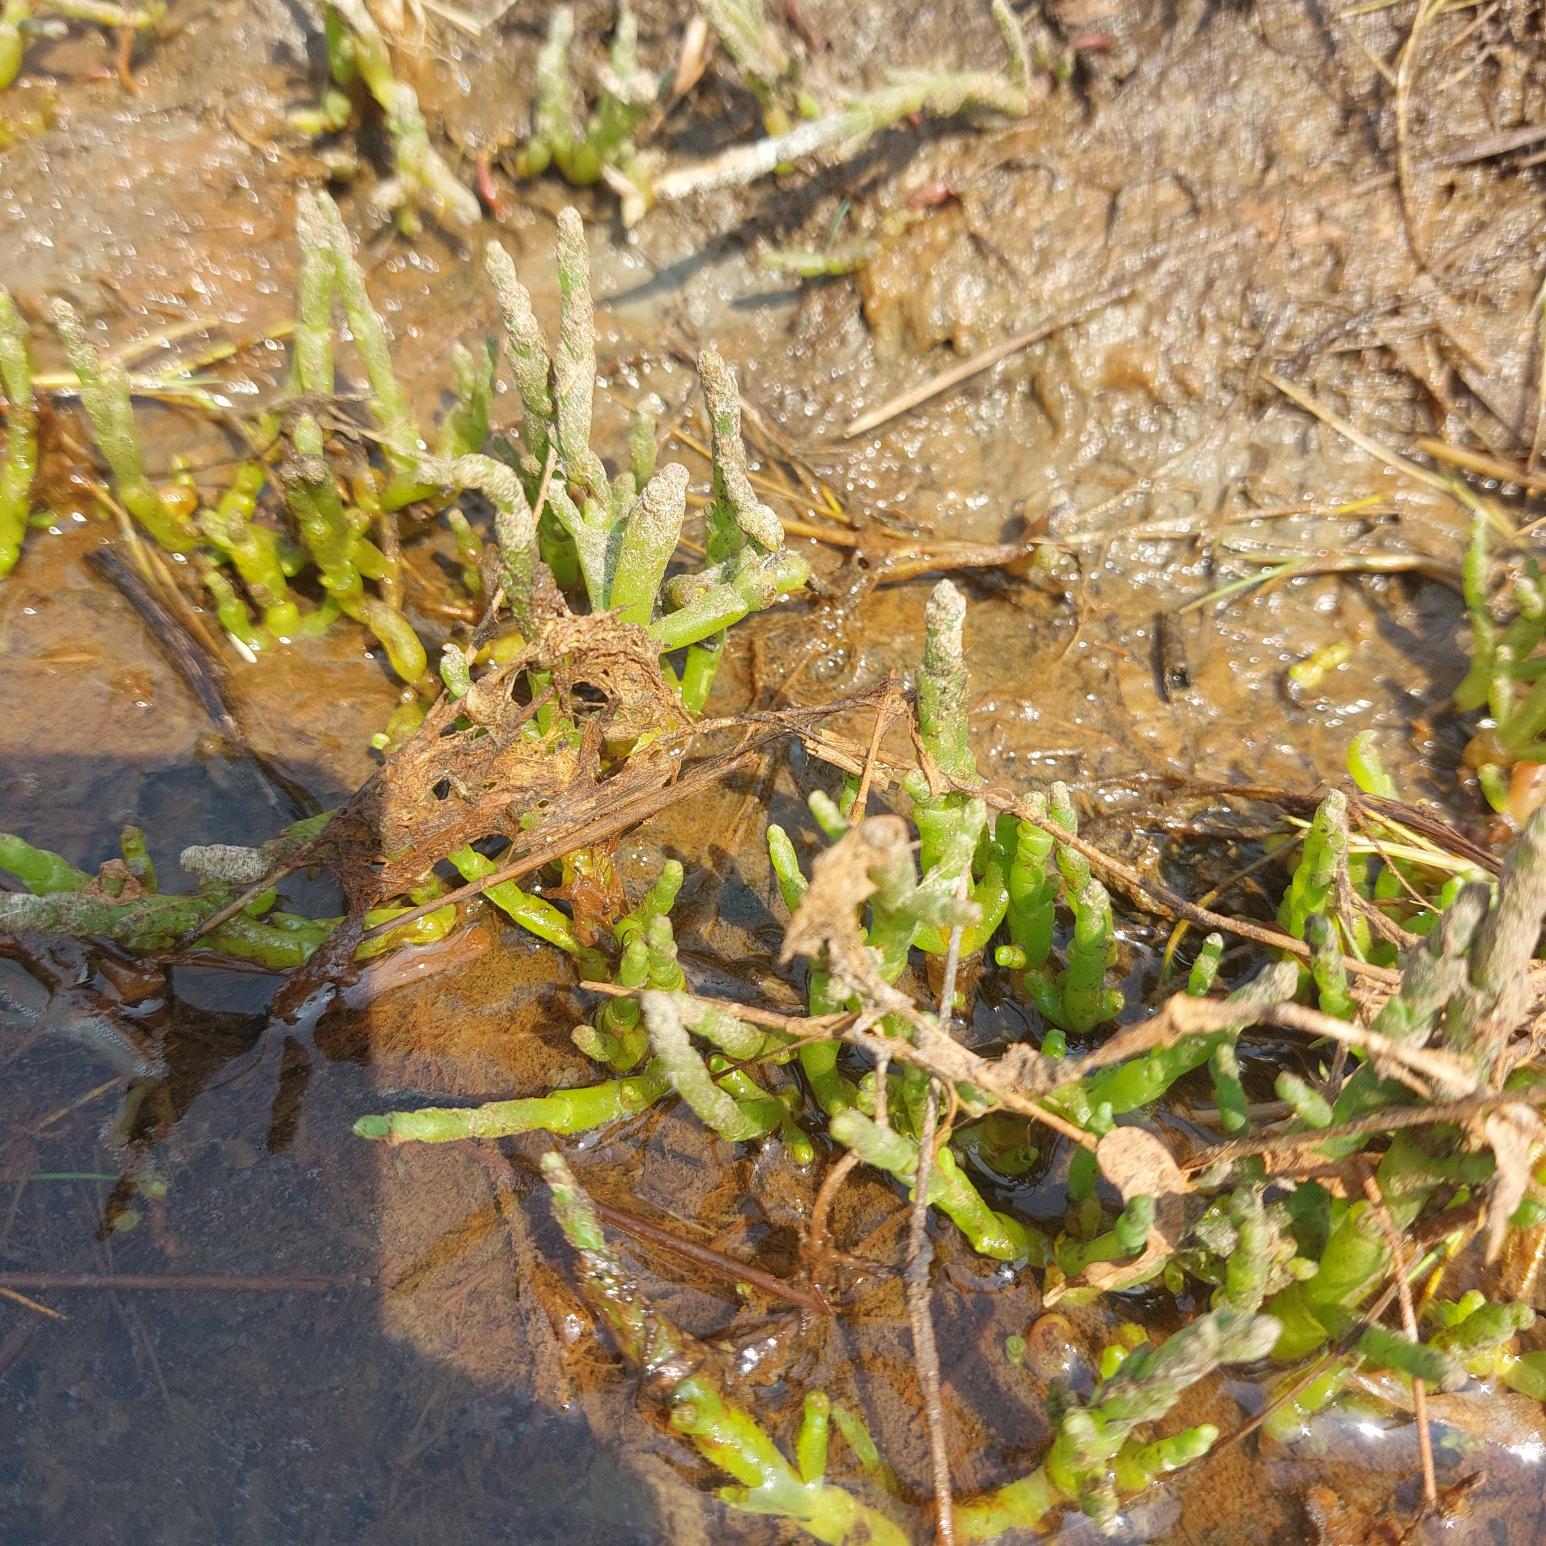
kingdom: Plantae
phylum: Tracheophyta
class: Magnoliopsida
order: Caryophyllales
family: Amaranthaceae
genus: Salicornia
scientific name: Salicornia europaea
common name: Almindelig salturt
